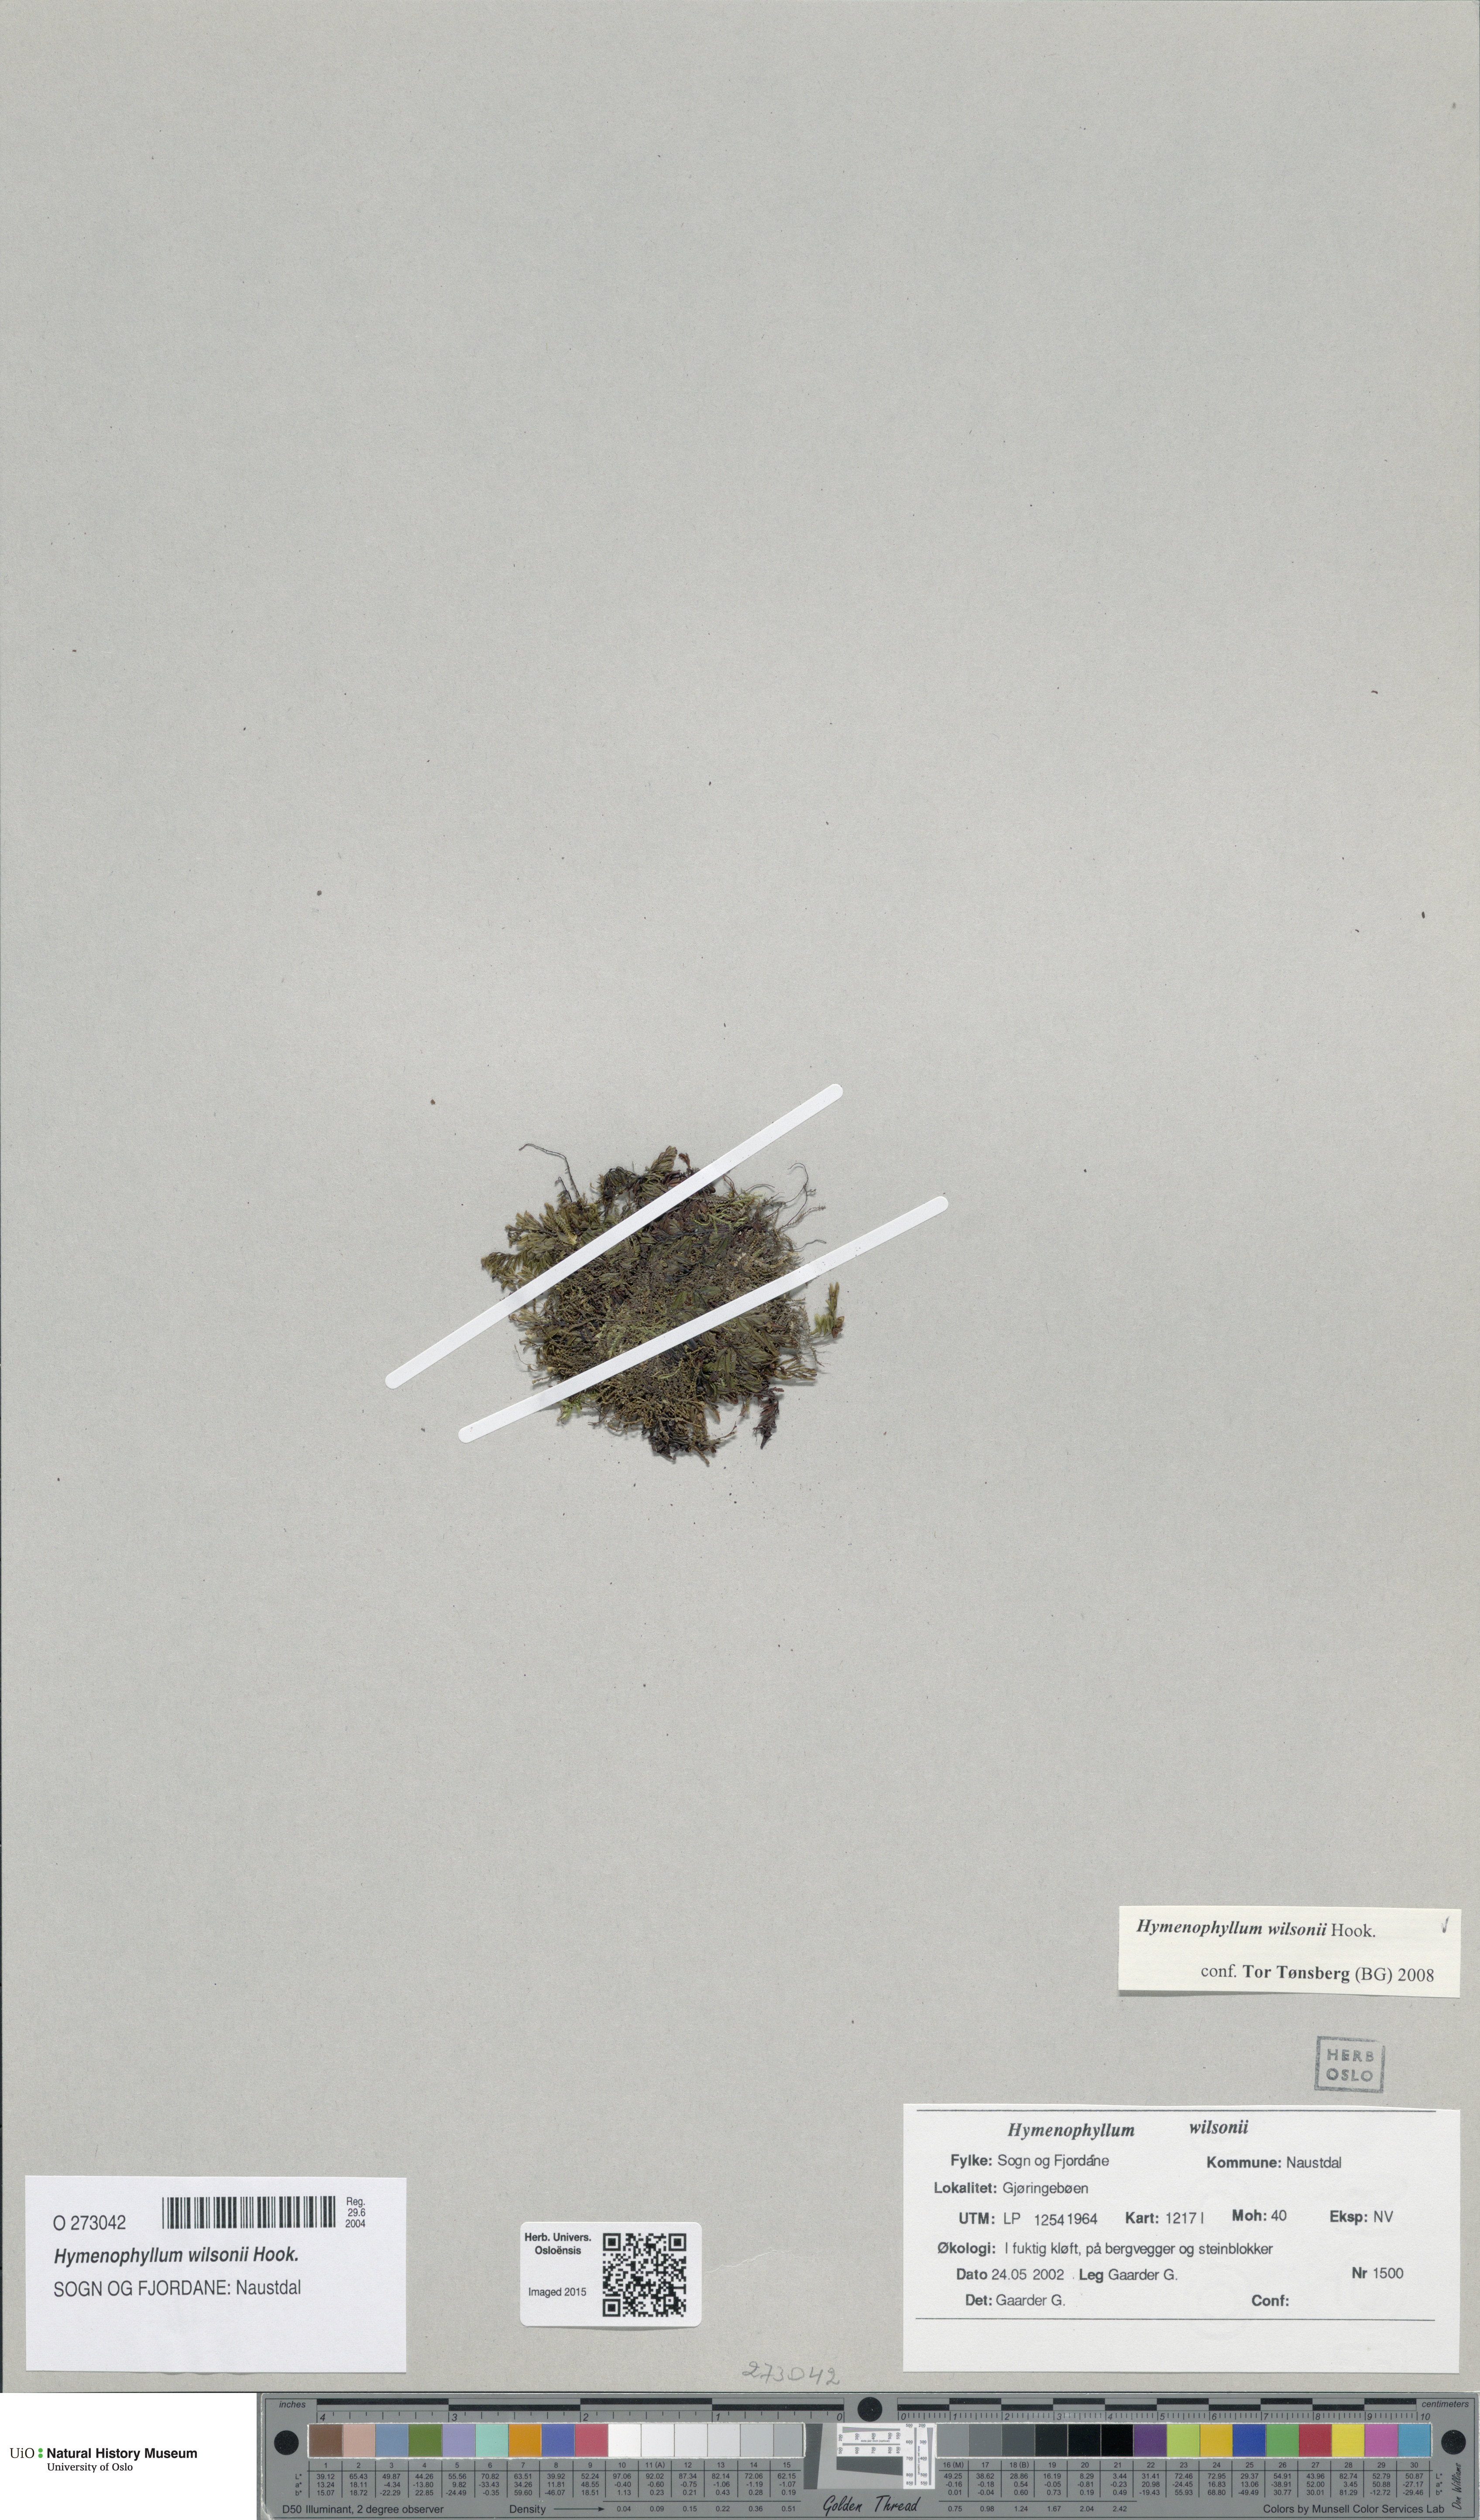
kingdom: Plantae
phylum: Tracheophyta
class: Polypodiopsida
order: Hymenophyllales
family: Hymenophyllaceae
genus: Hymenophyllum
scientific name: Hymenophyllum peltatum
